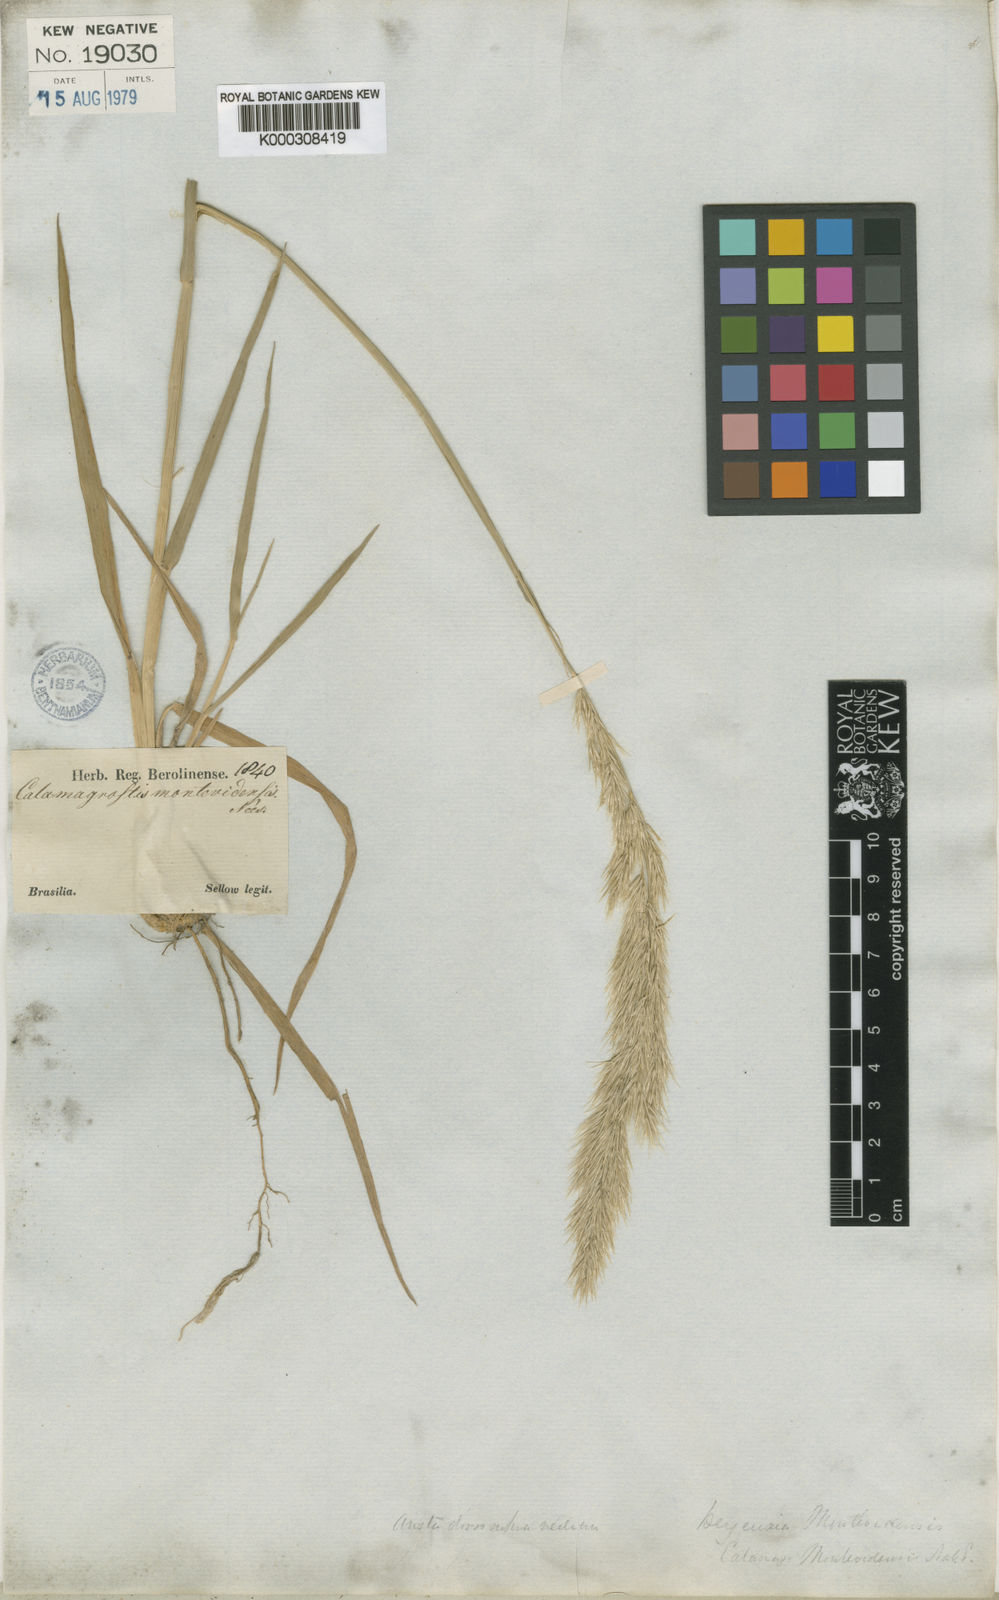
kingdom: Plantae
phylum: Tracheophyta
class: Liliopsida
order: Poales
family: Poaceae
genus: Cinnagrostis
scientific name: Cinnagrostis viridiflavescens
